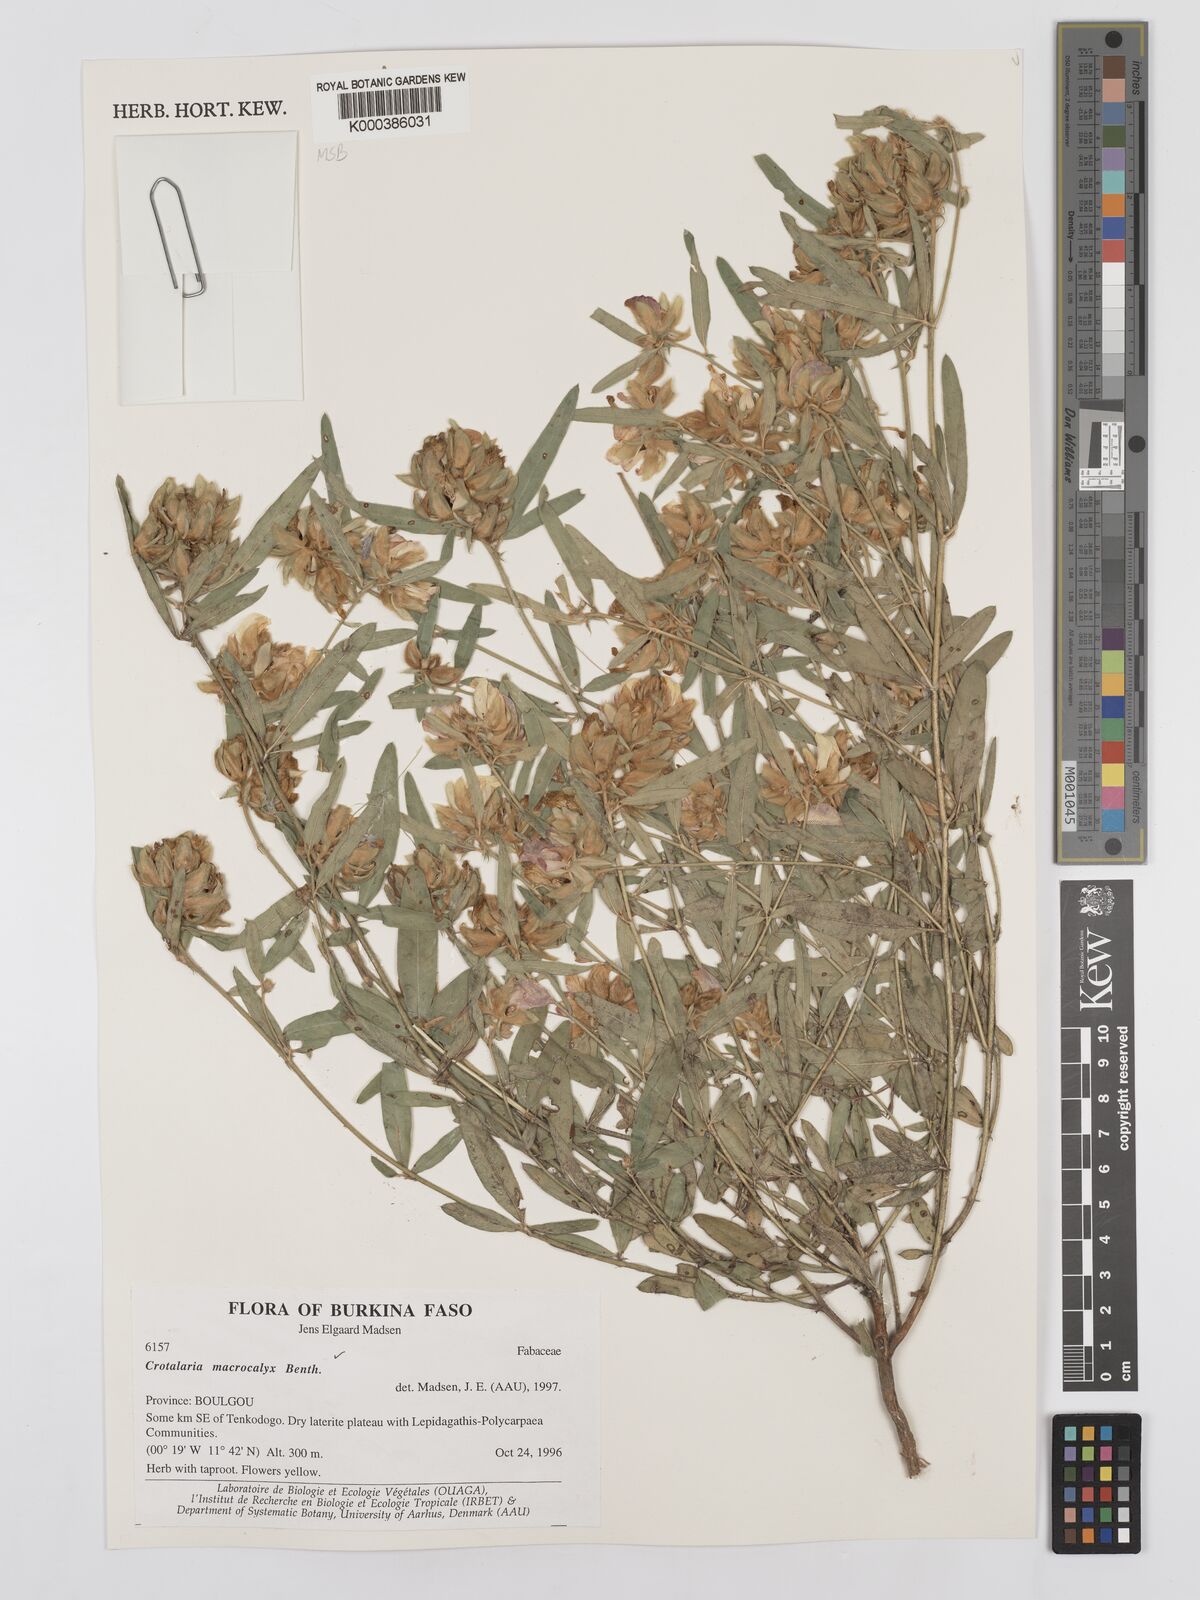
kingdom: Plantae
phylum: Tracheophyta
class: Magnoliopsida
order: Fabales
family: Fabaceae
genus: Crotalaria
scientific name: Crotalaria macrocalyx
